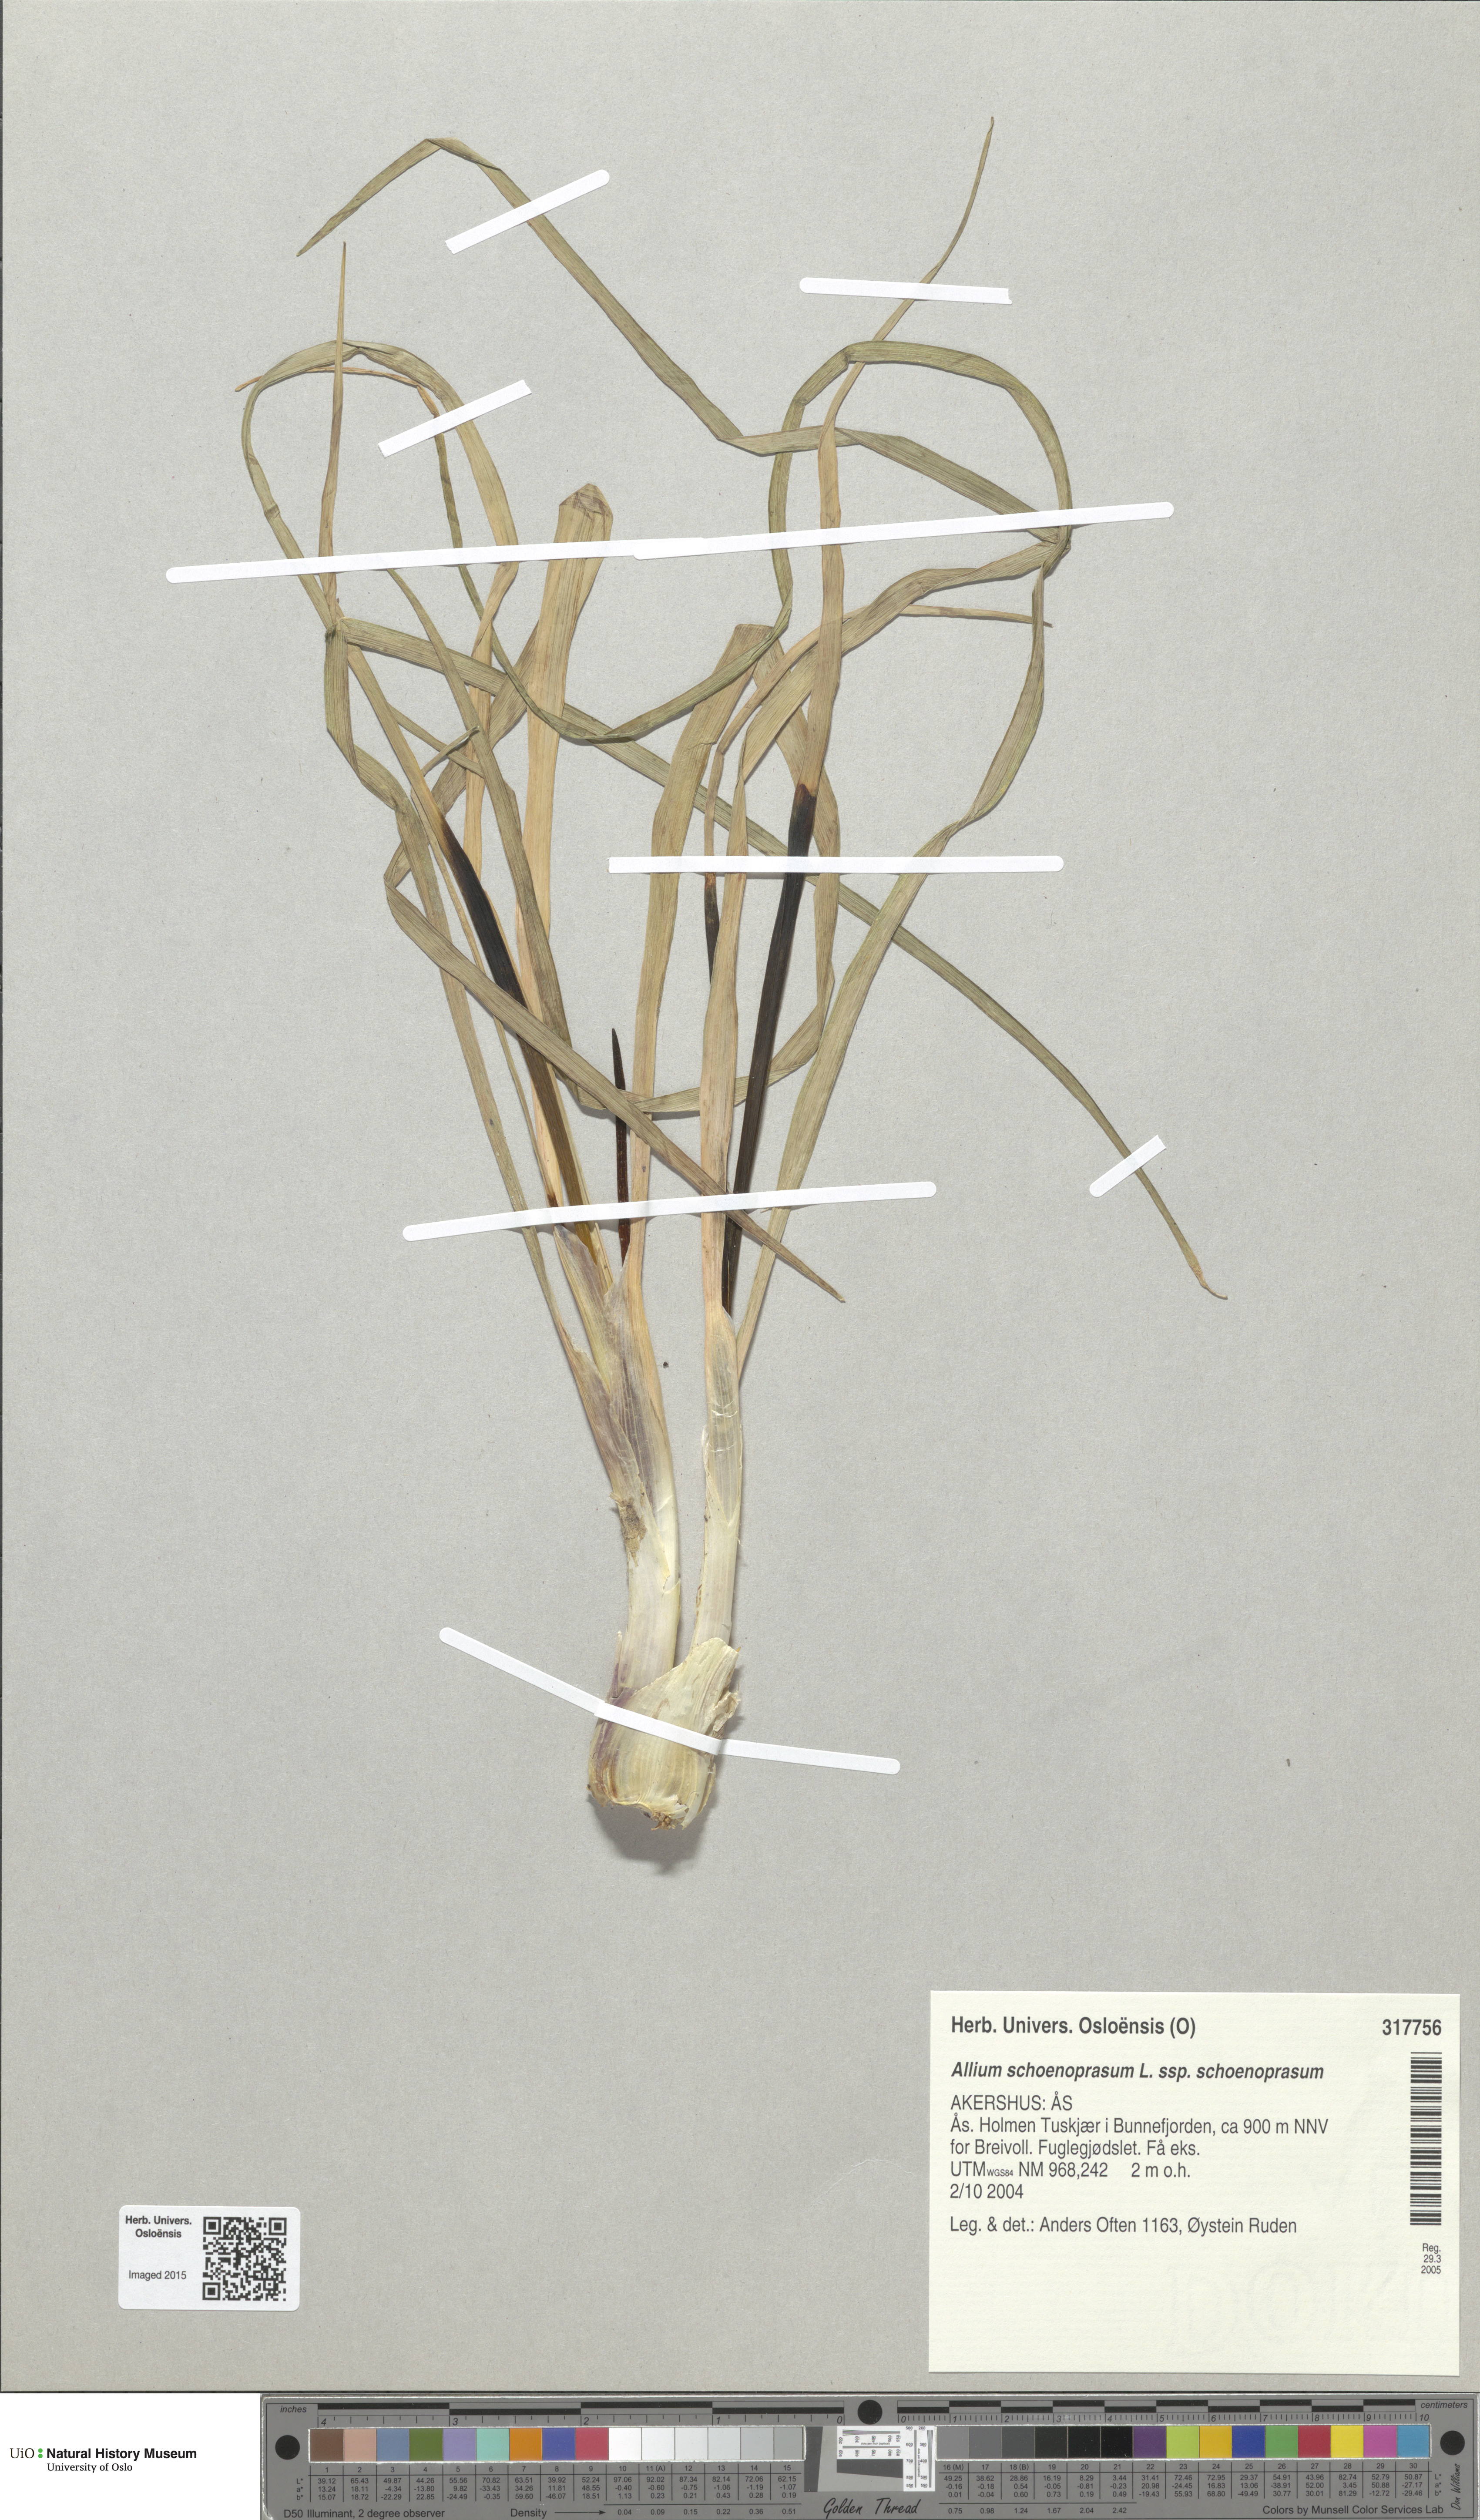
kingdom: Plantae
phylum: Tracheophyta
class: Liliopsida
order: Asparagales
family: Amaryllidaceae
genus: Allium
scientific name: Allium schoenoprasum
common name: Chives
